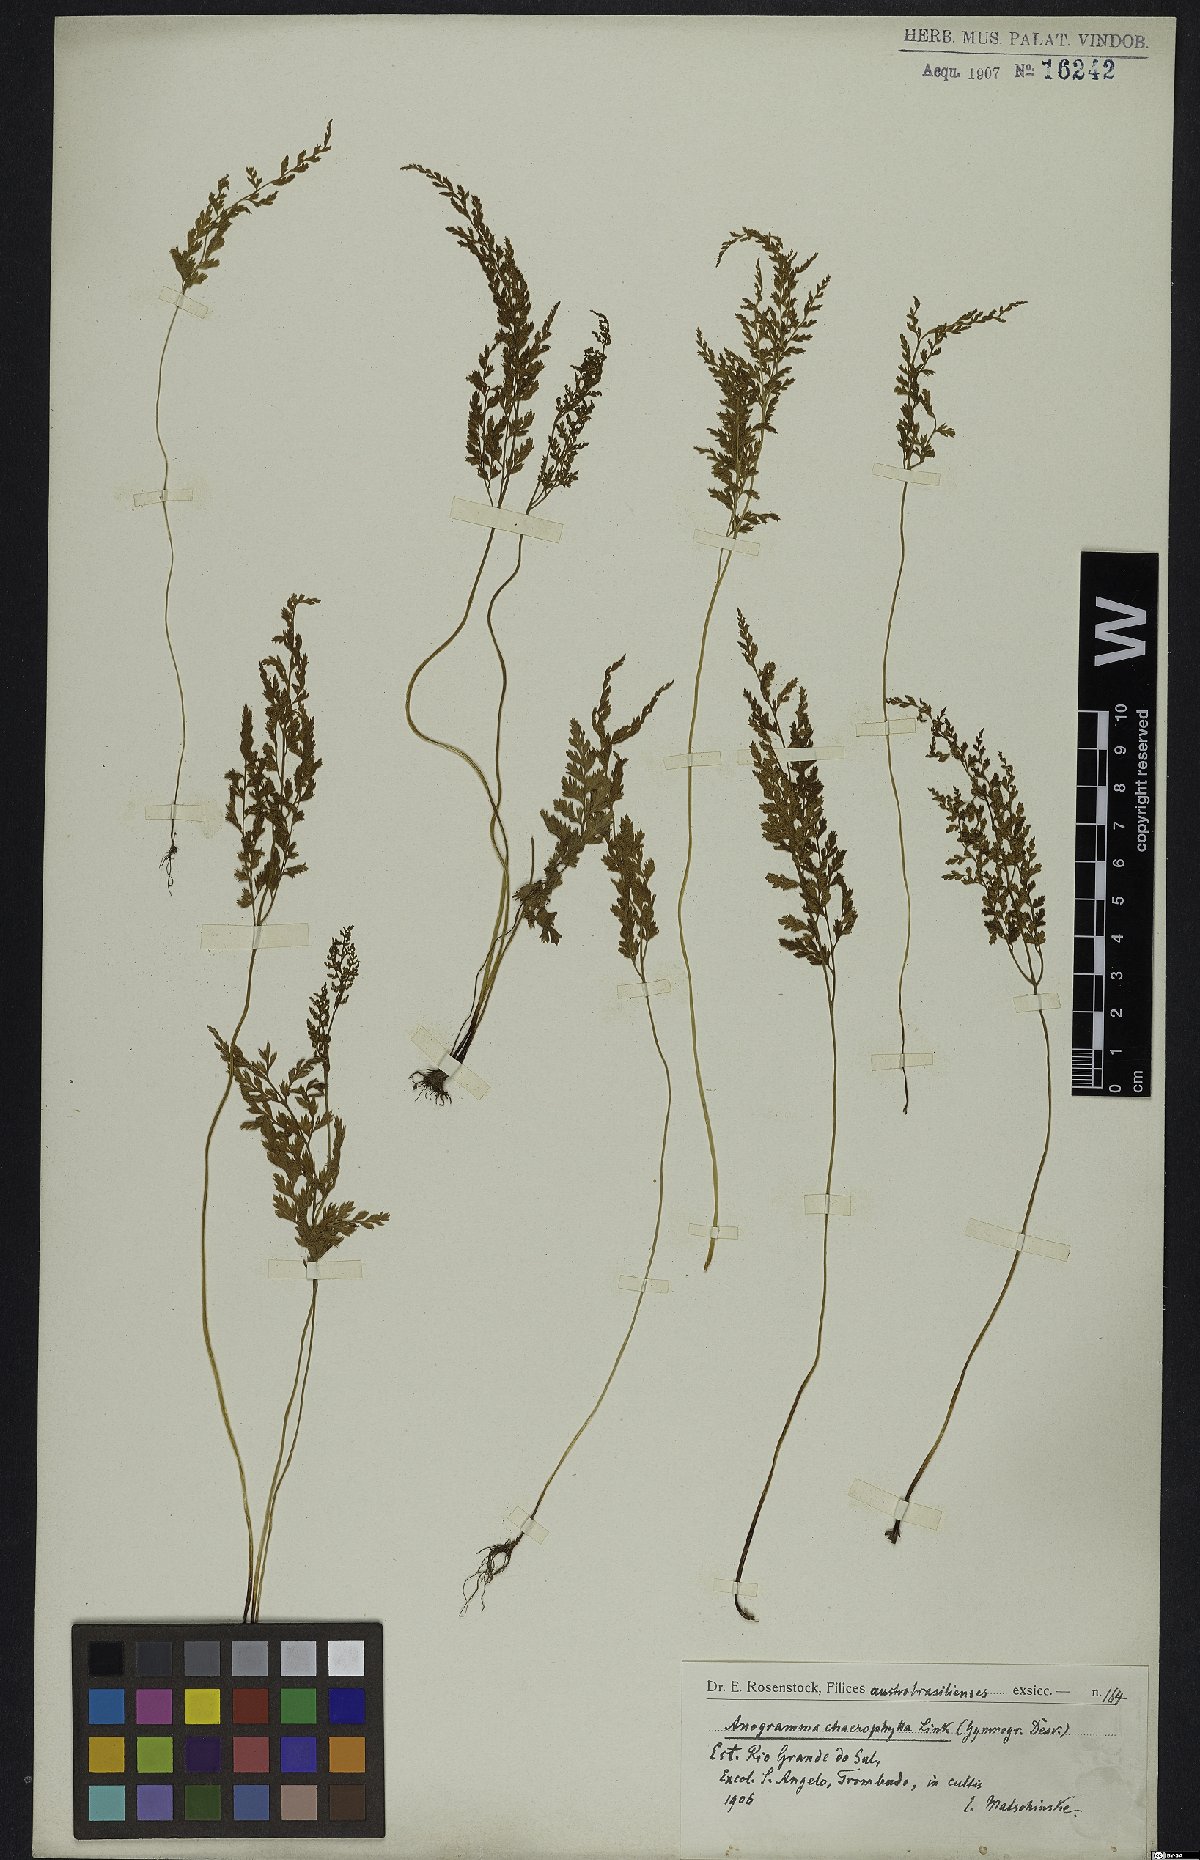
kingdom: Plantae
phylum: Tracheophyta
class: Polypodiopsida
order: Polypodiales
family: Pteridaceae
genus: Gastoniella
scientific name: Gastoniella chaerophylla
